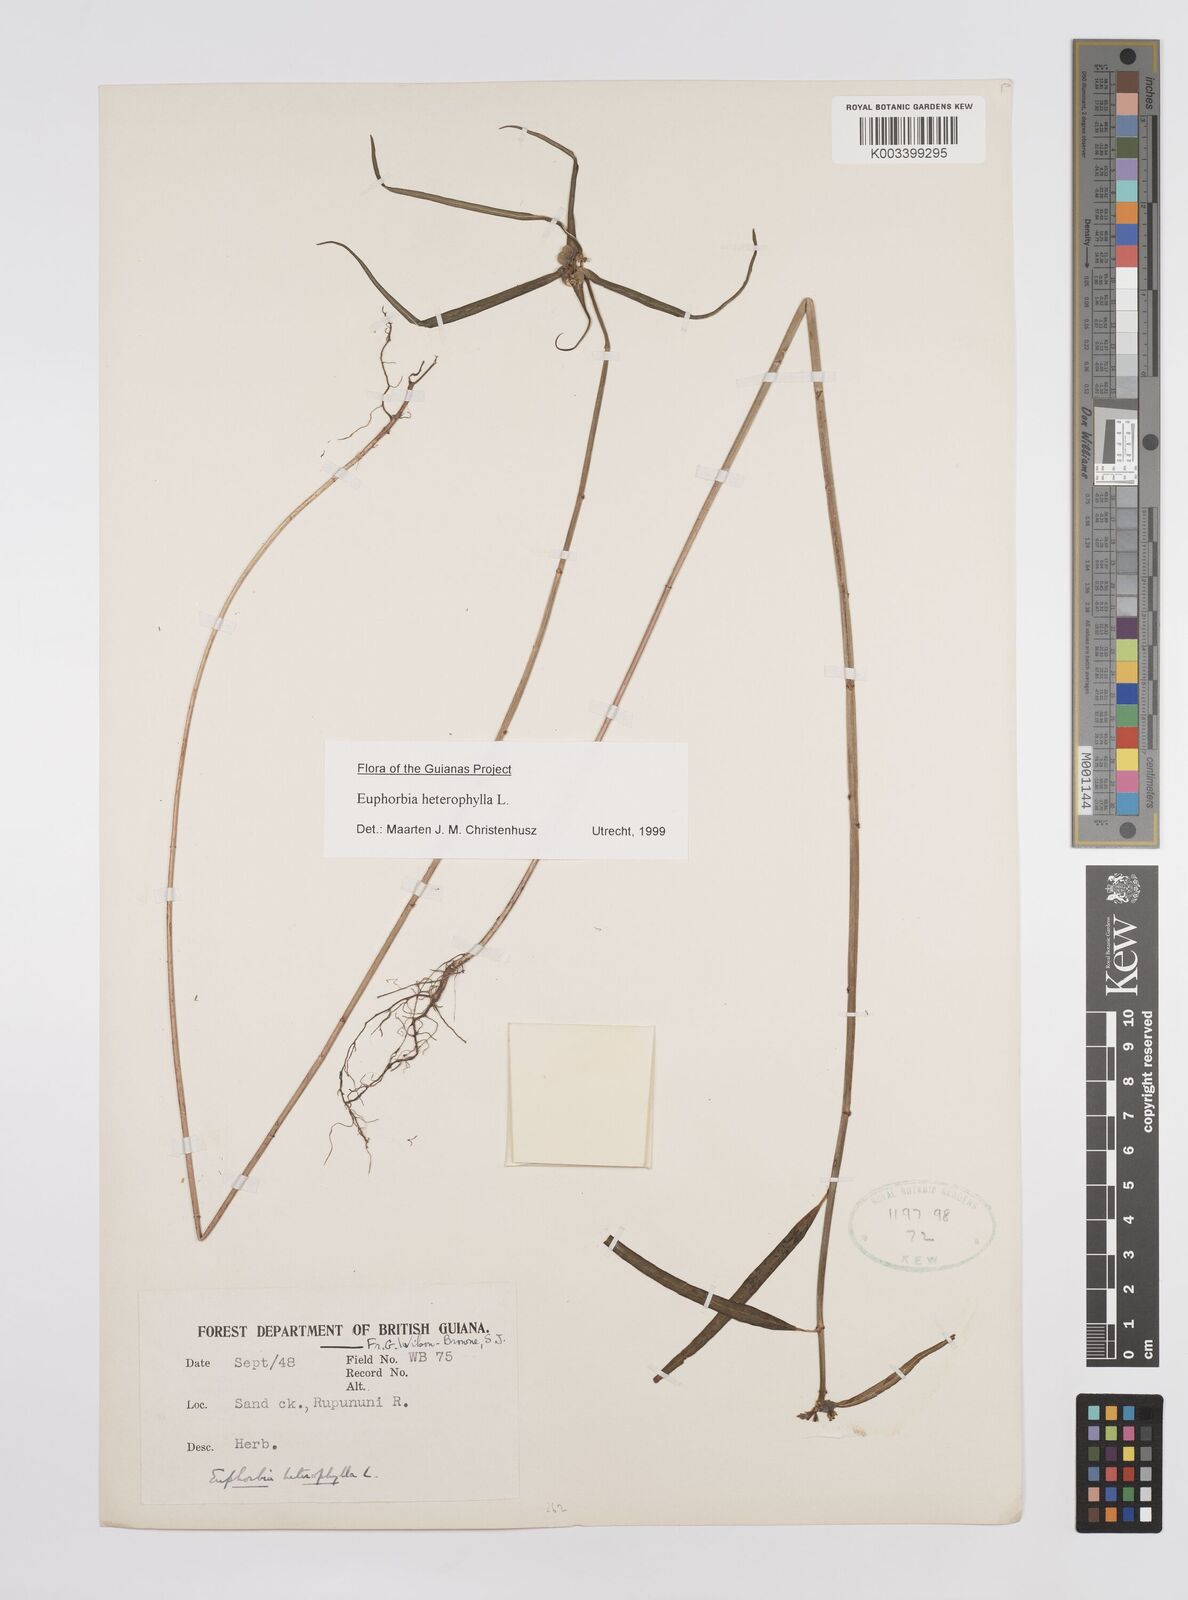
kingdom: Plantae
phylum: Tracheophyta
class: Magnoliopsida
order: Malpighiales
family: Euphorbiaceae
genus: Euphorbia
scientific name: Euphorbia heterophylla
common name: Mexican fireplant
